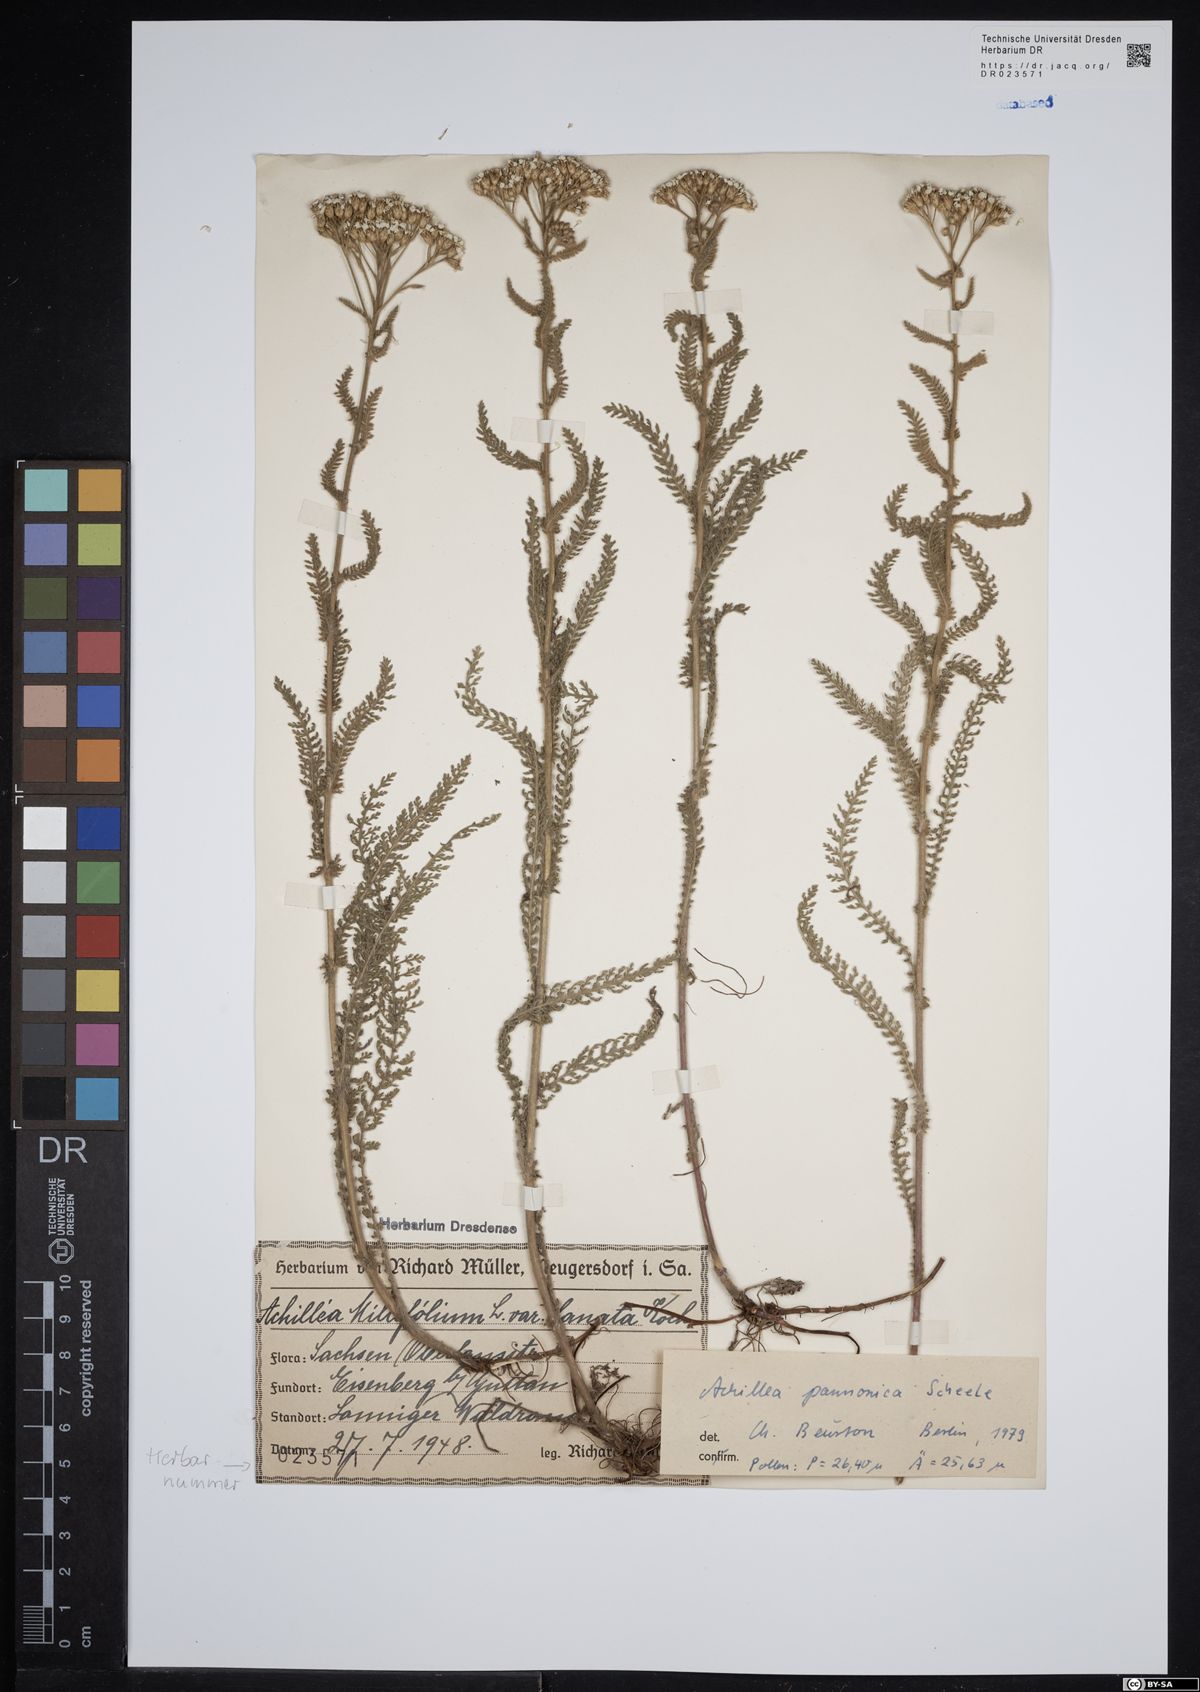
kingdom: Plantae
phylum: Tracheophyta
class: Magnoliopsida
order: Asterales
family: Asteraceae
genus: Achillea
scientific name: Achillea pannonica
